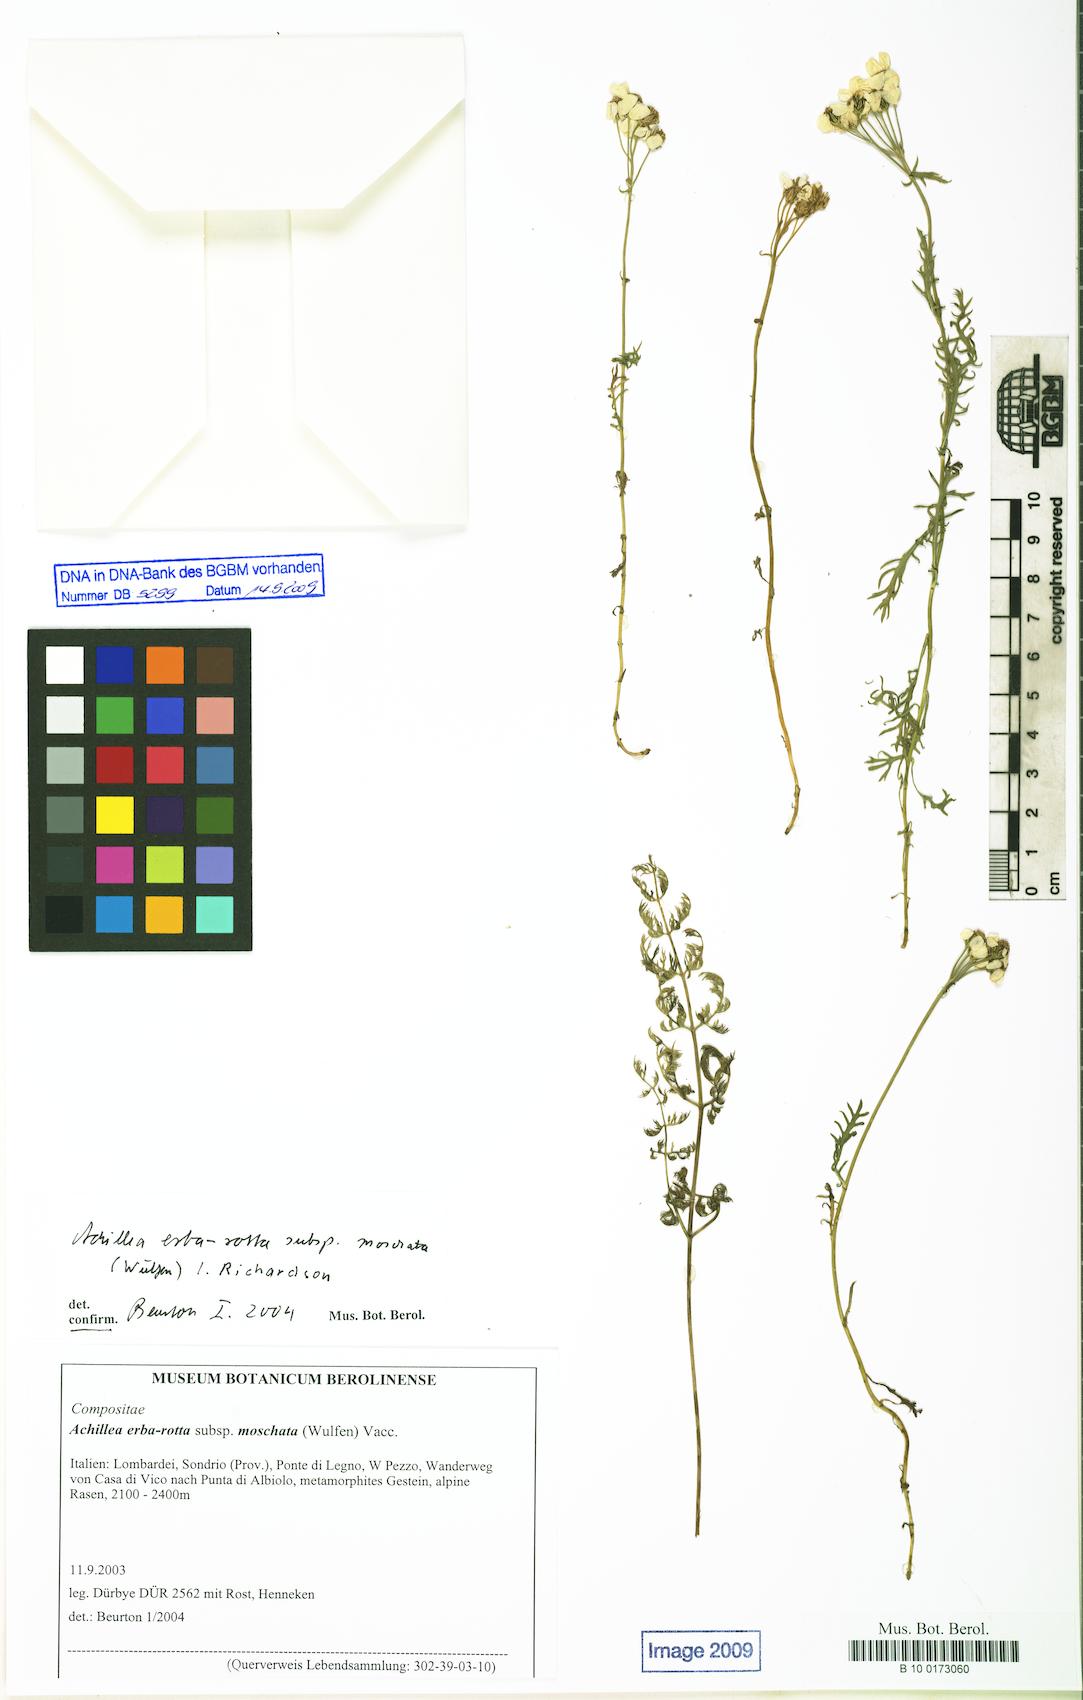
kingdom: Plantae
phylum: Tracheophyta
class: Magnoliopsida
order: Asterales
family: Asteraceae
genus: Achillea
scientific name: Achillea erba-rotta
